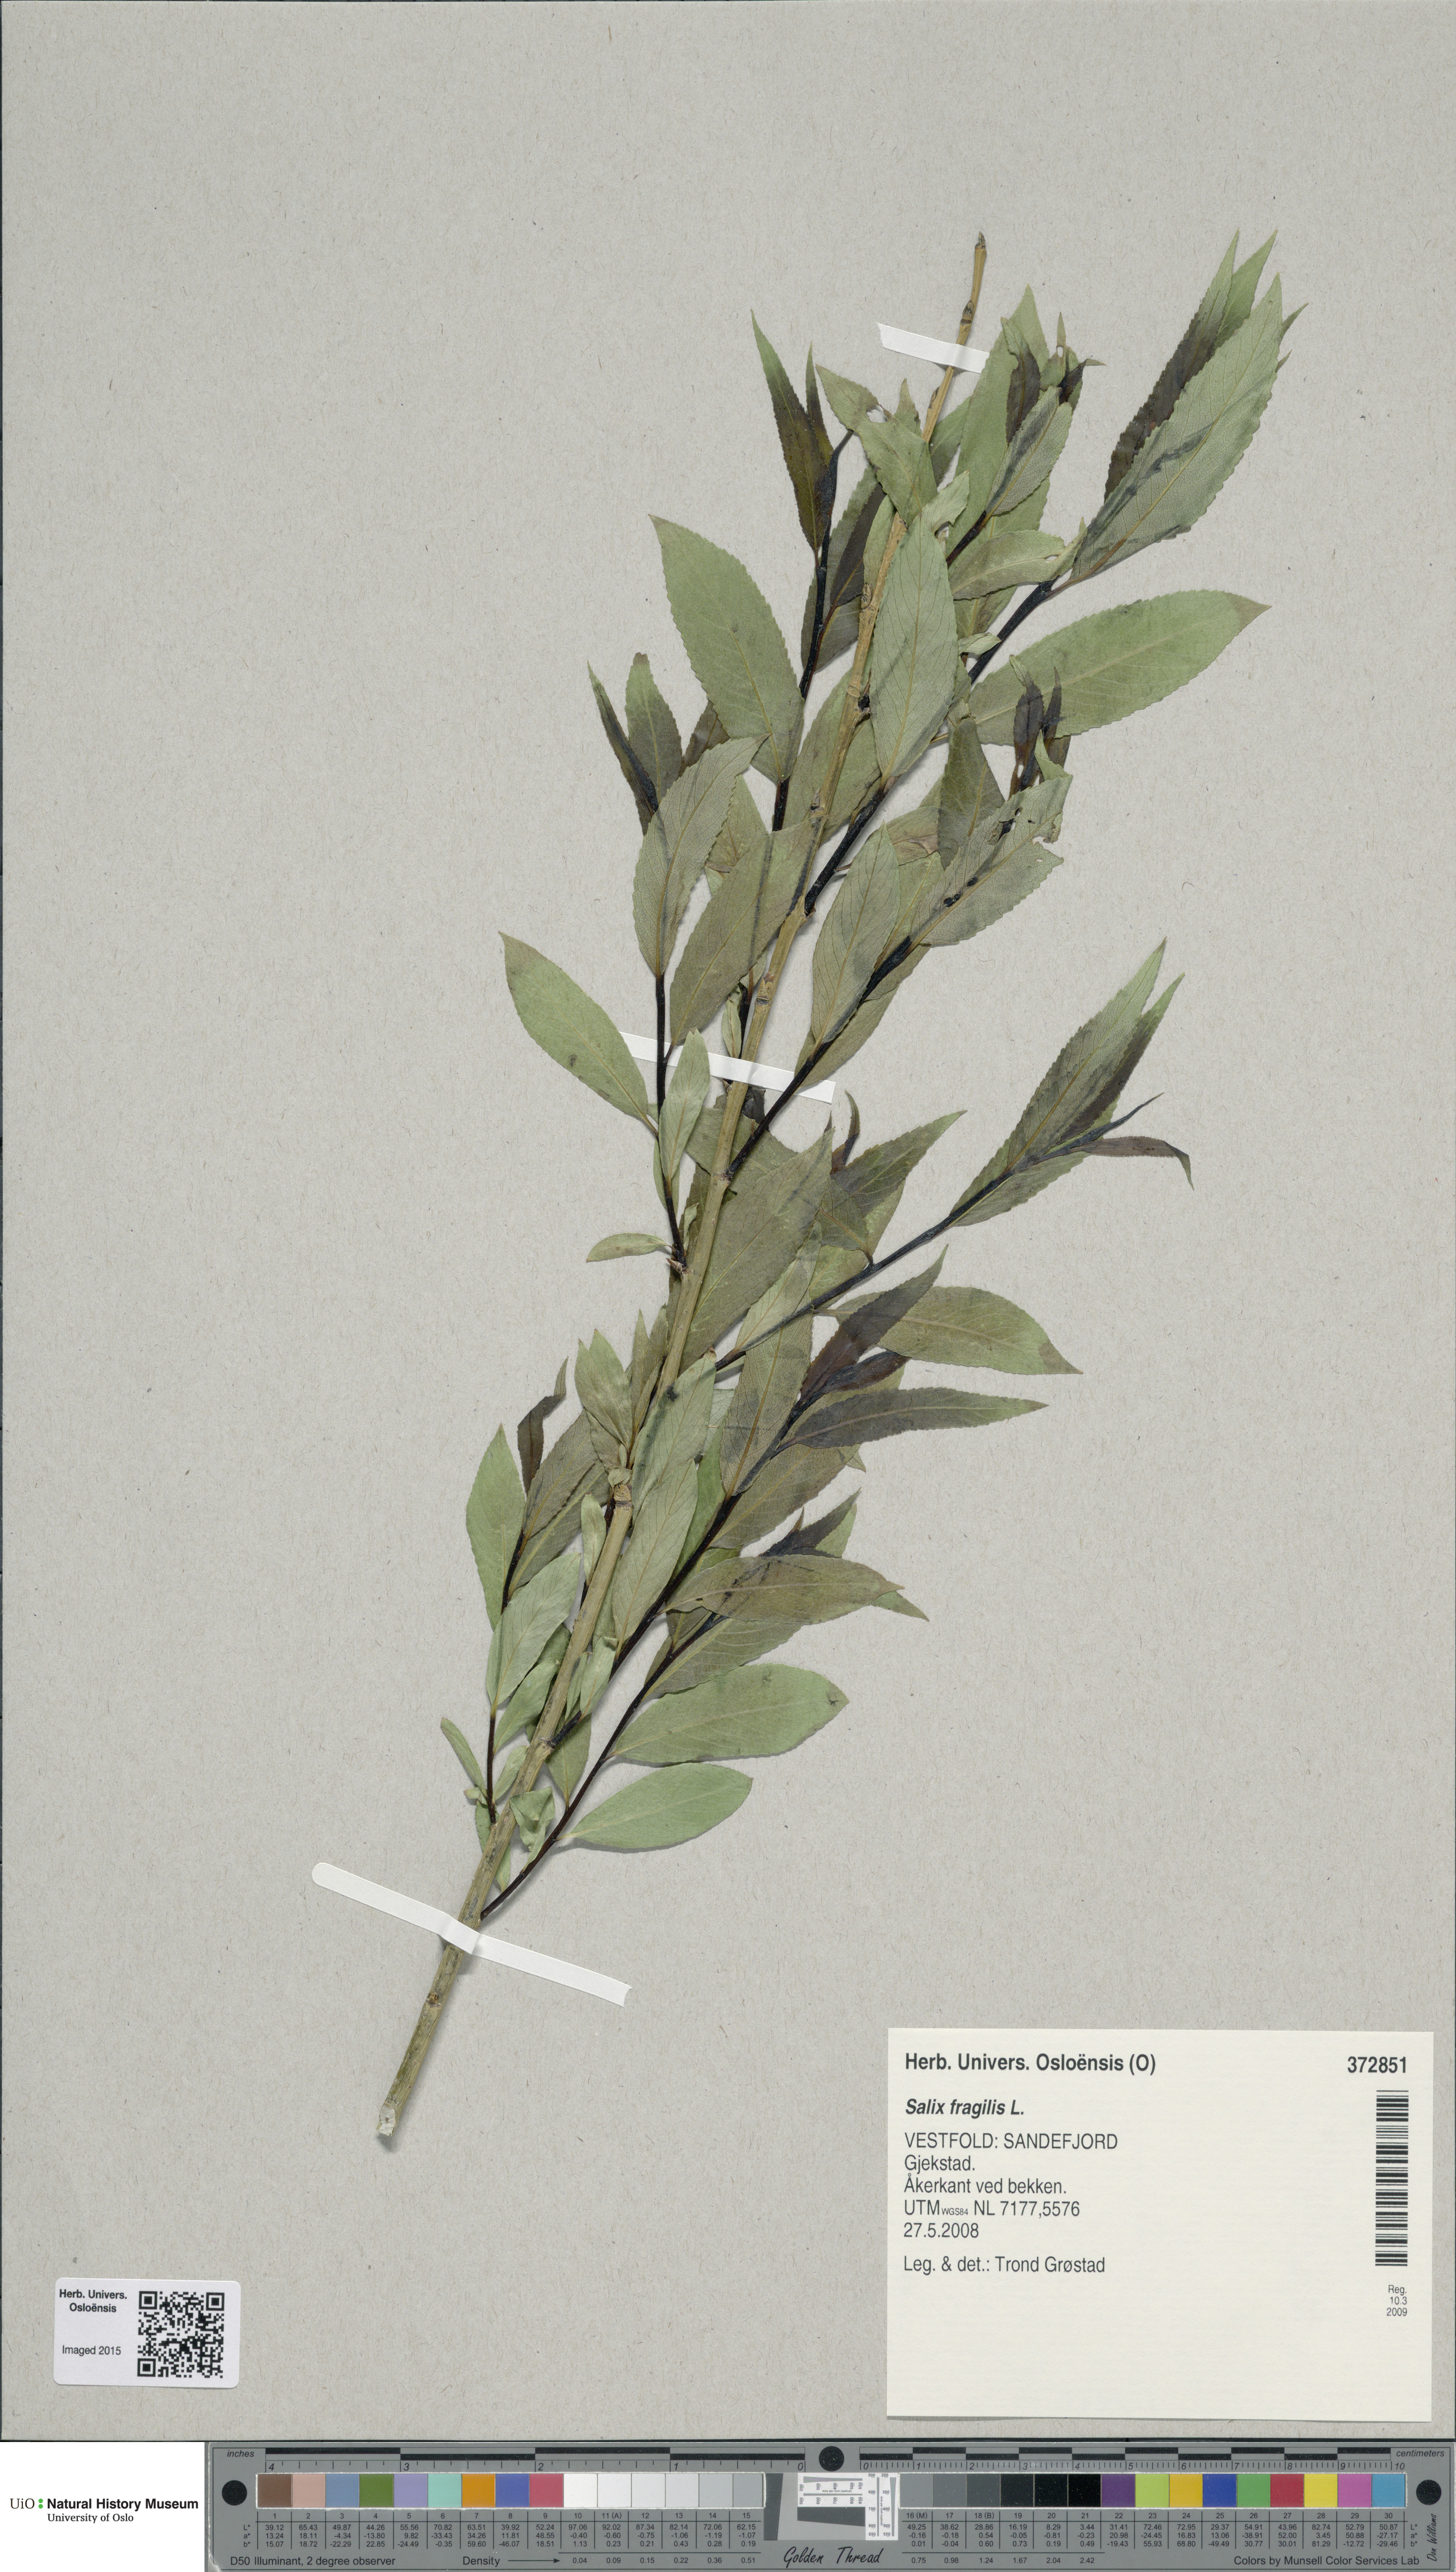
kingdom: Plantae
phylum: Tracheophyta
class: Magnoliopsida
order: Malpighiales
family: Salicaceae
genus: Salix
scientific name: Salix alba
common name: White willow
